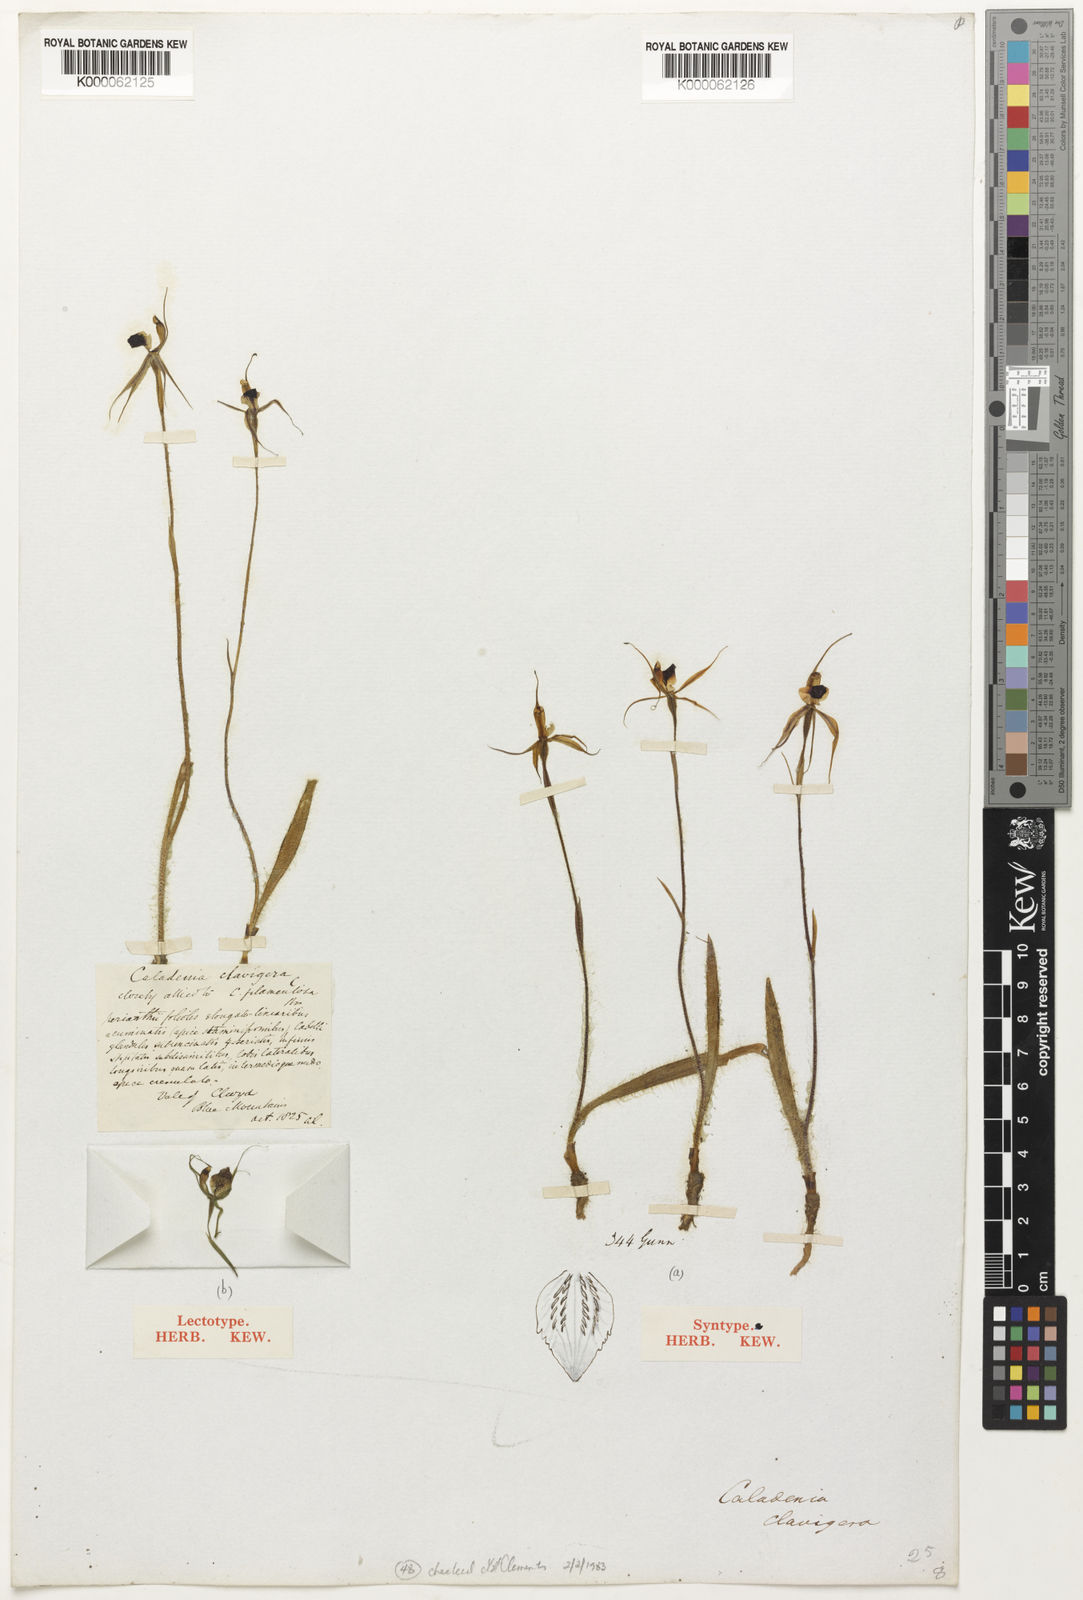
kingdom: Plantae
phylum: Tracheophyta
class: Liliopsida
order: Asparagales
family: Orchidaceae
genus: Caladenia
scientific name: Caladenia clavigera
